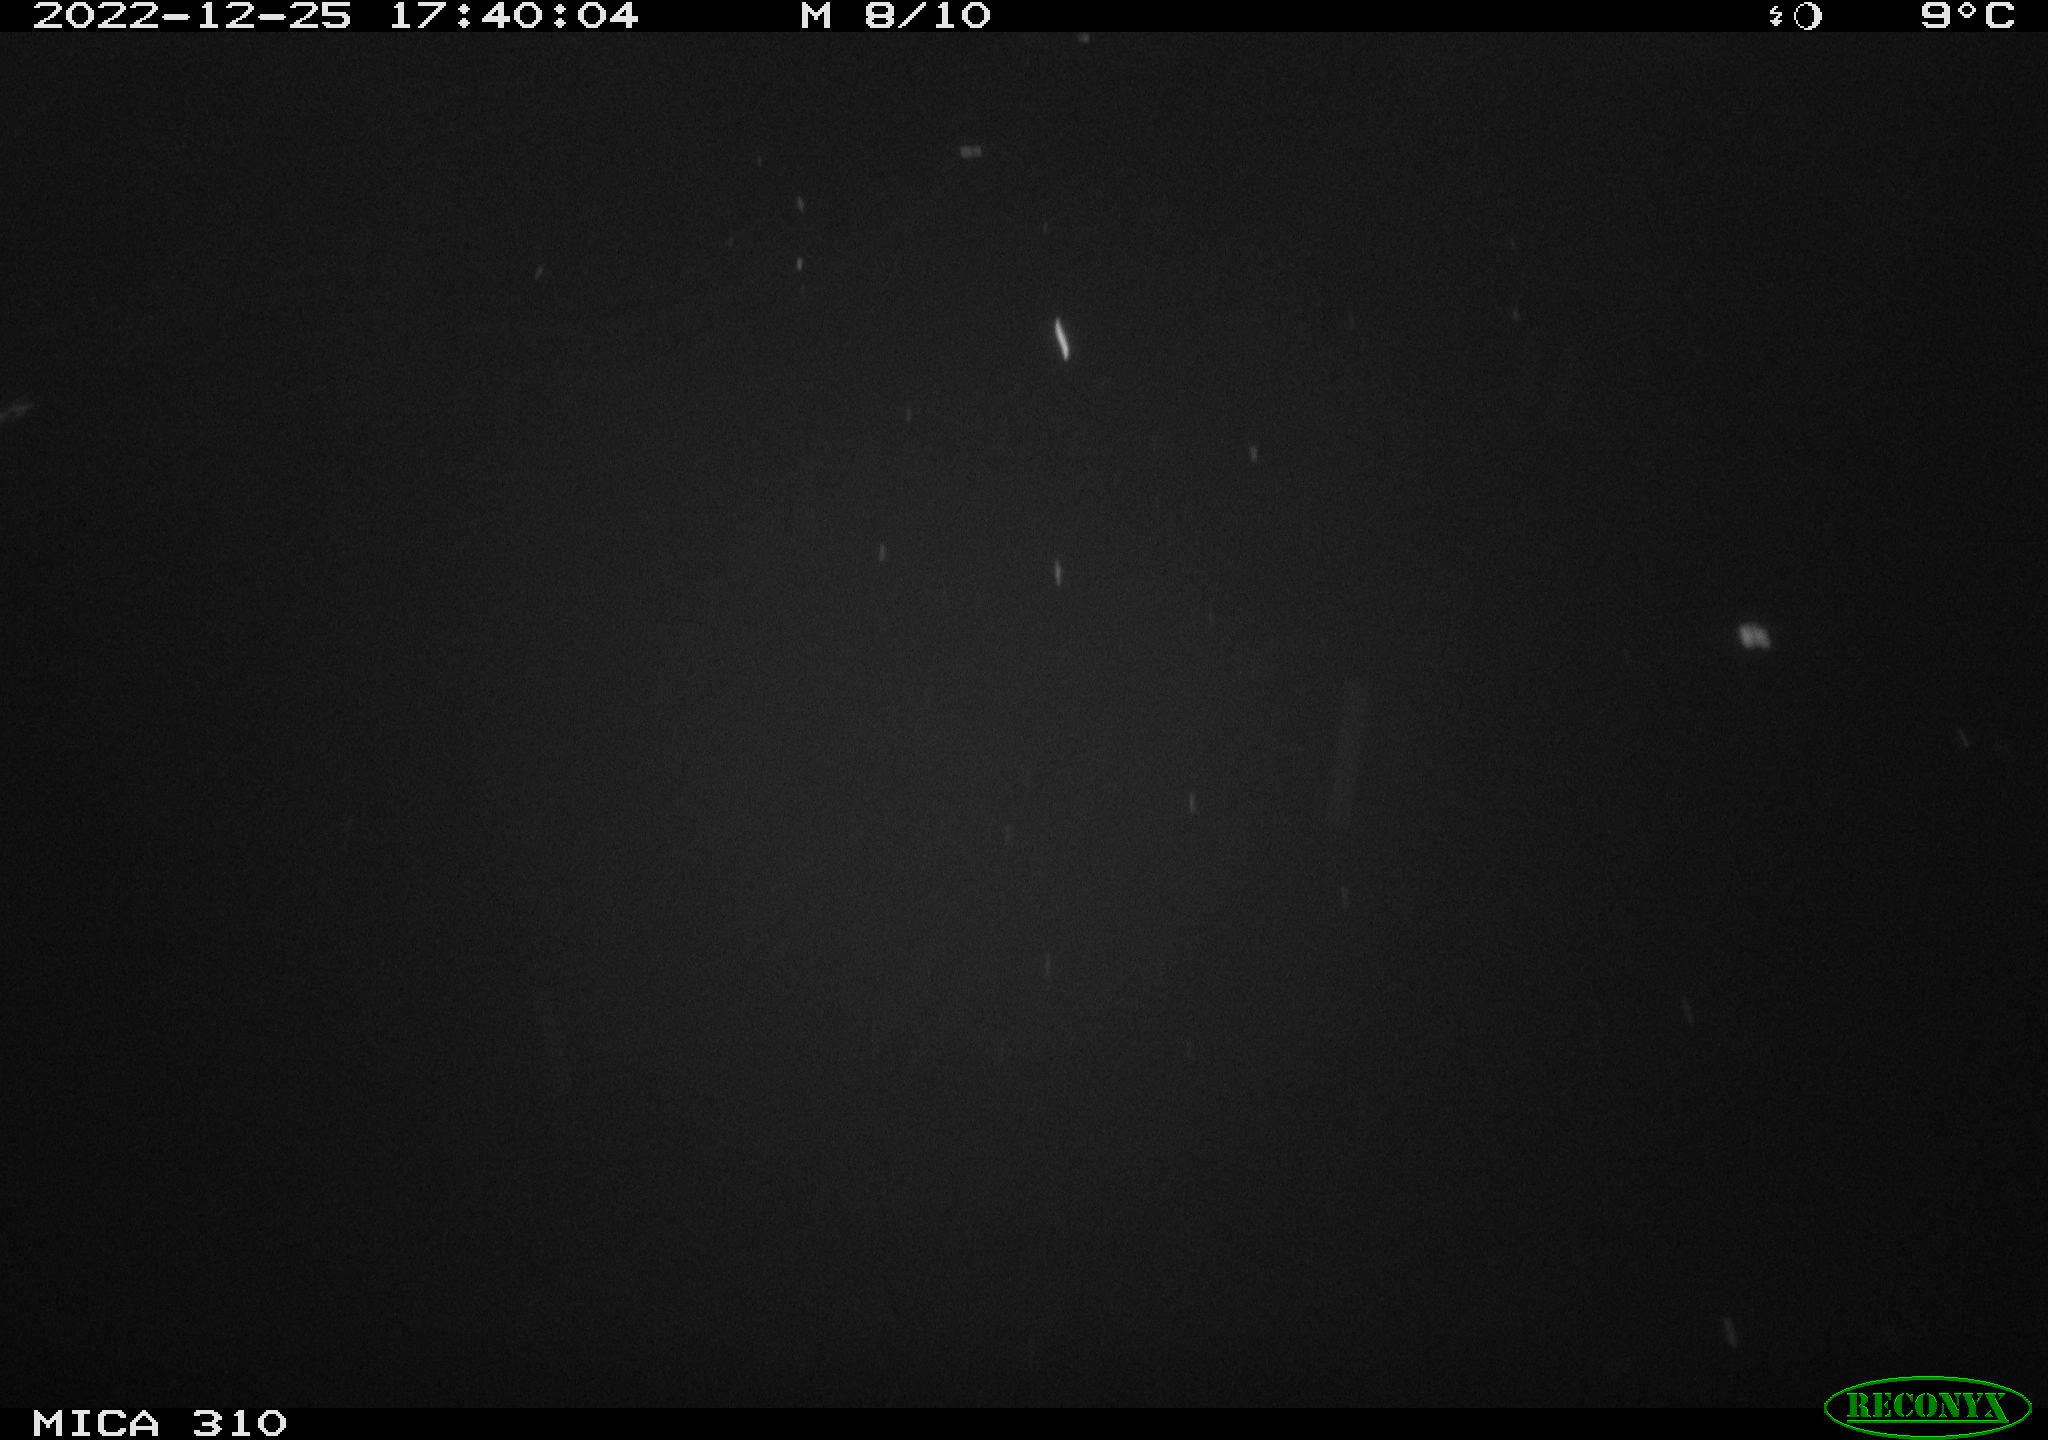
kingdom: Animalia
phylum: Chordata
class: Mammalia
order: Rodentia
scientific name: Rodentia
